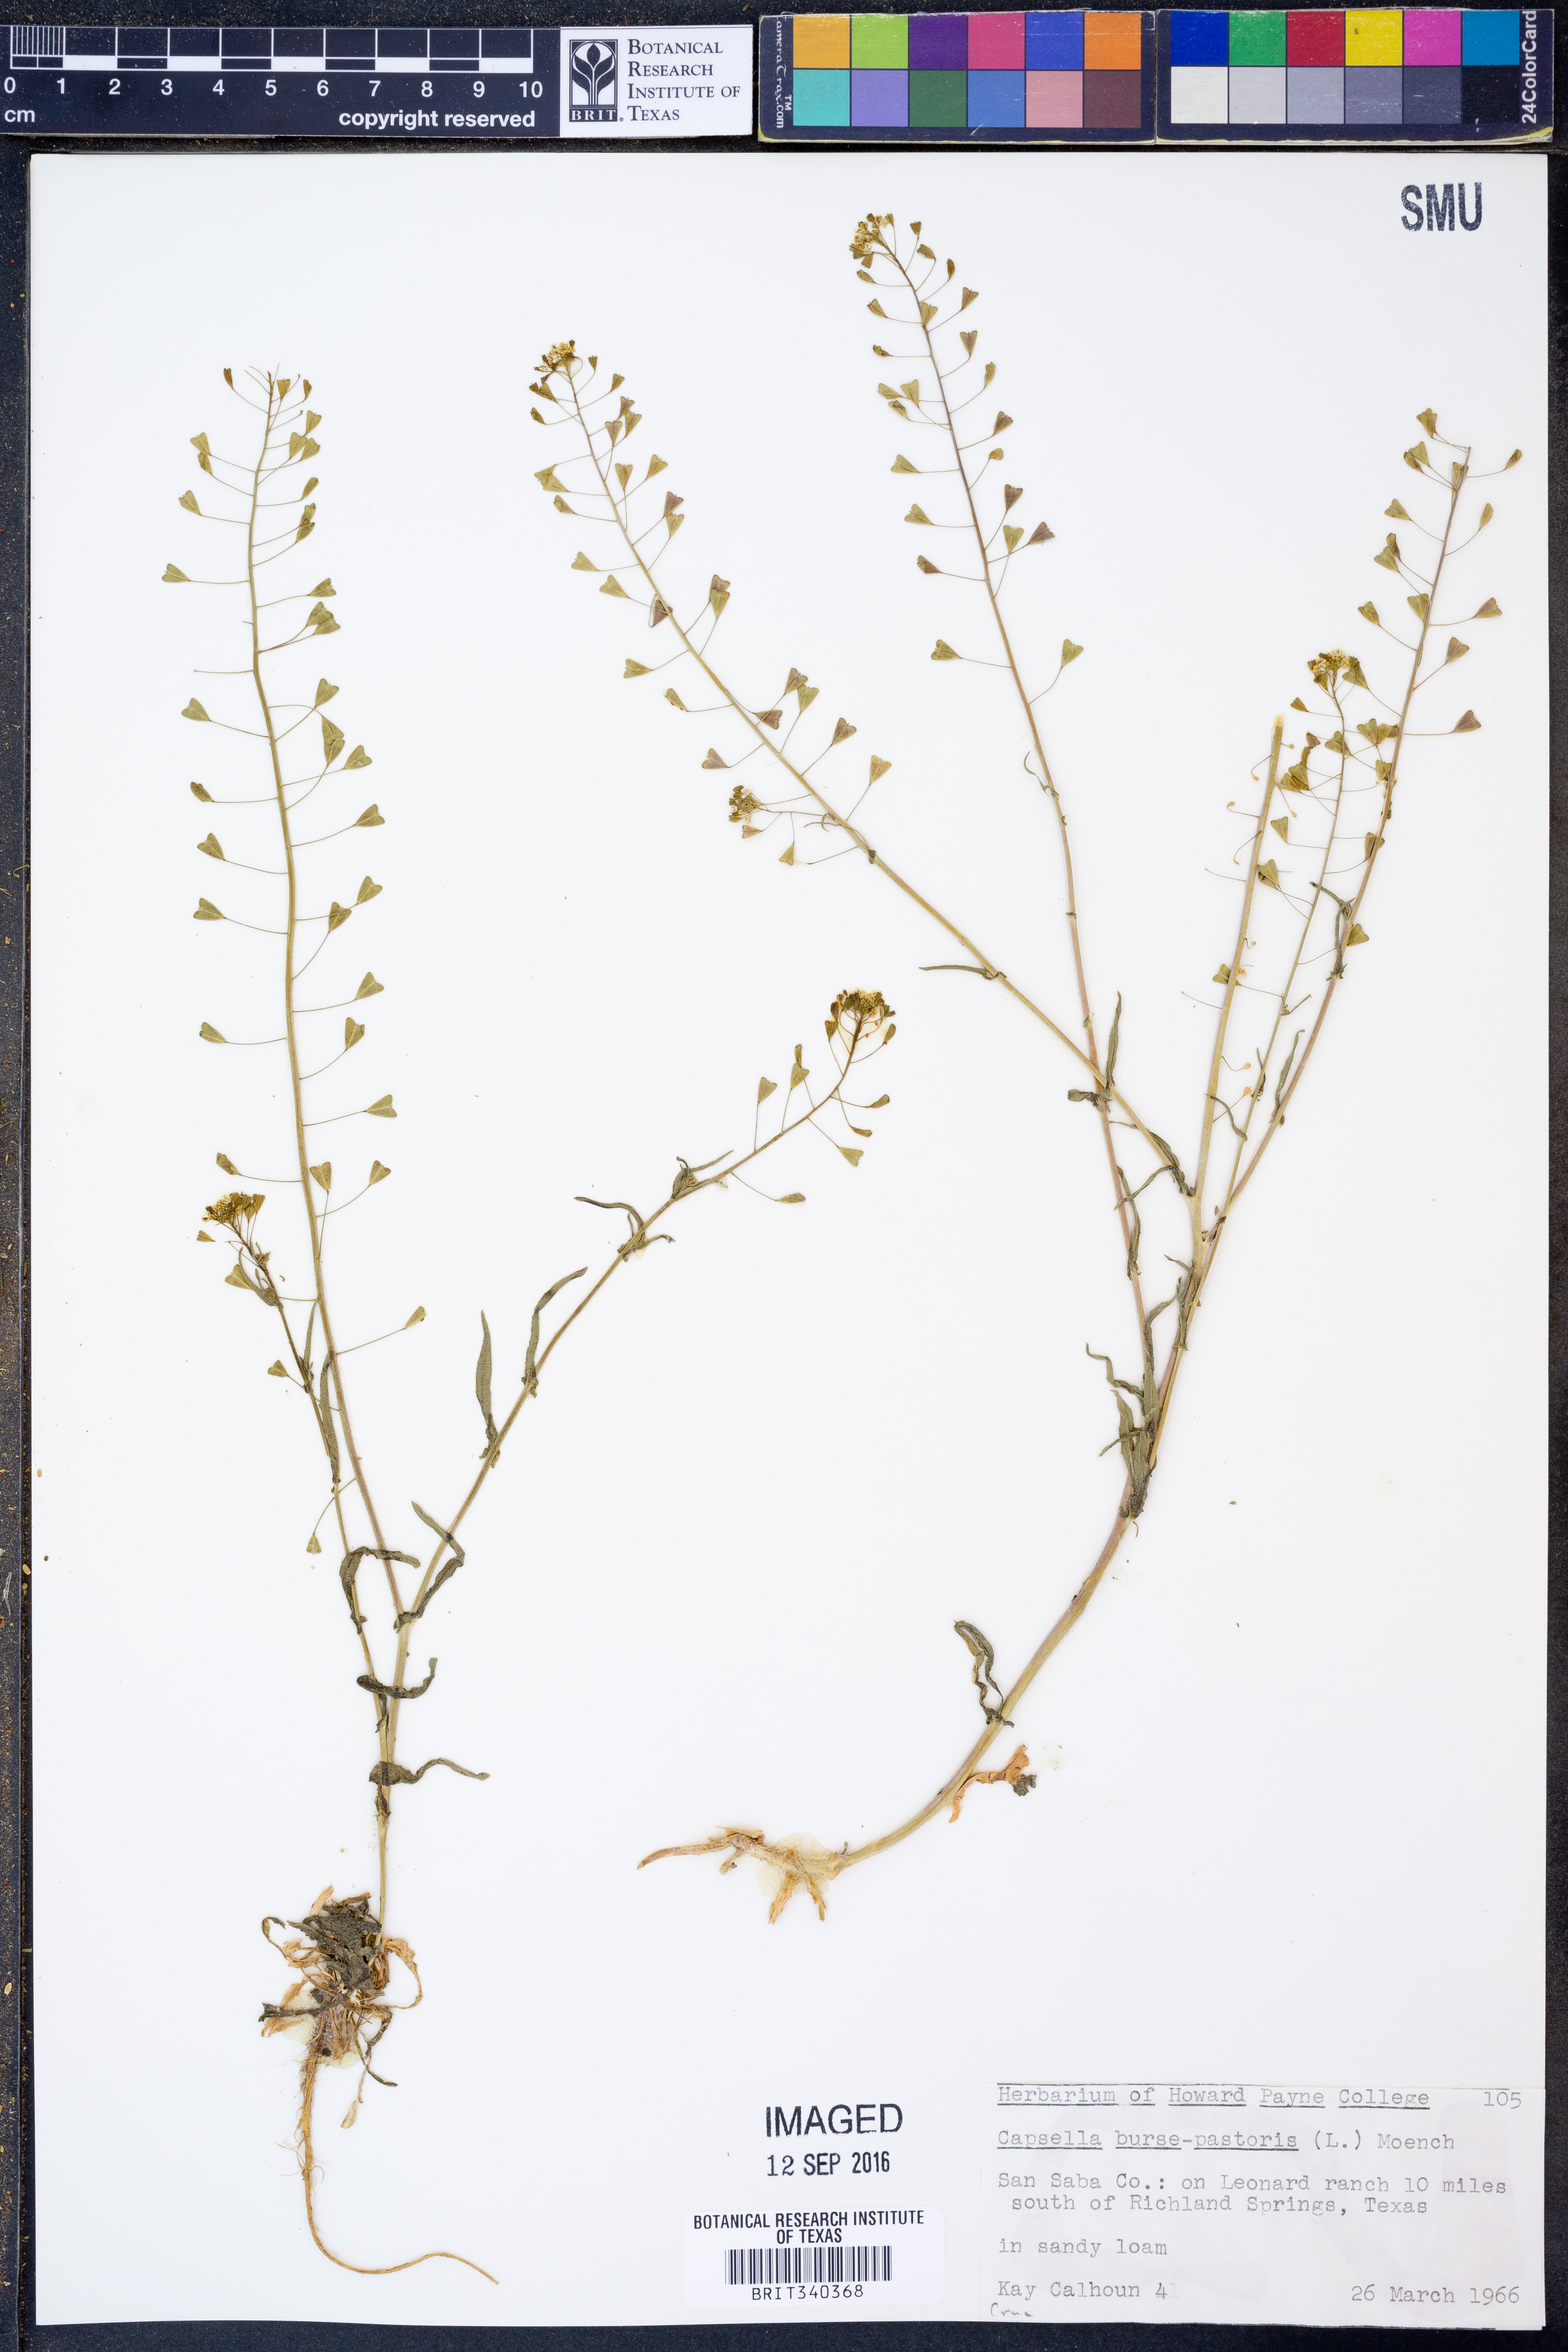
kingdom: Plantae
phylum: Tracheophyta
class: Magnoliopsida
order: Brassicales
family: Brassicaceae
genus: Capsella
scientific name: Capsella bursa-pastoris
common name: Shepherd's purse
